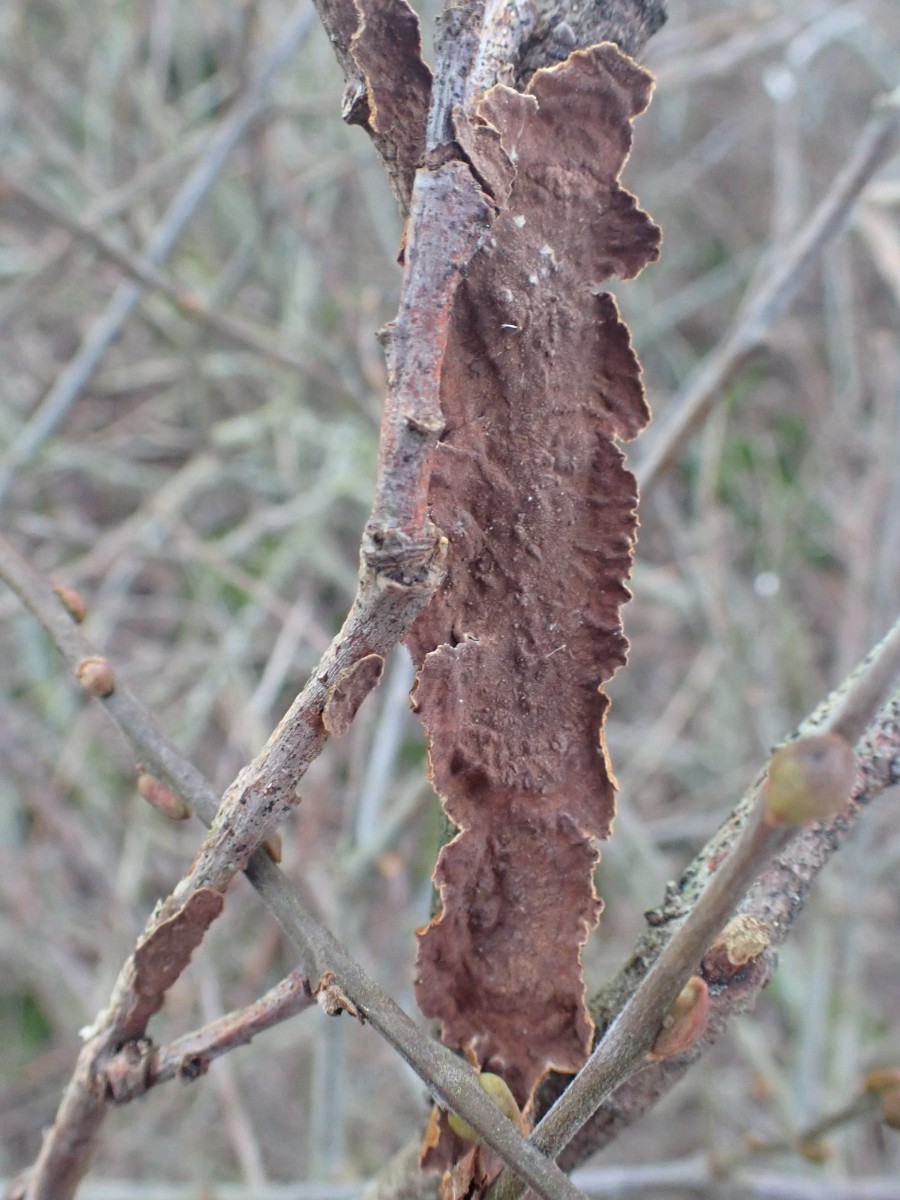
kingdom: Fungi
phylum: Basidiomycota
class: Agaricomycetes
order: Hymenochaetales
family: Hymenochaetaceae
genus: Hydnoporia
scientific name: Hydnoporia tabacina
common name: tobaksbrun ruslædersvamp
